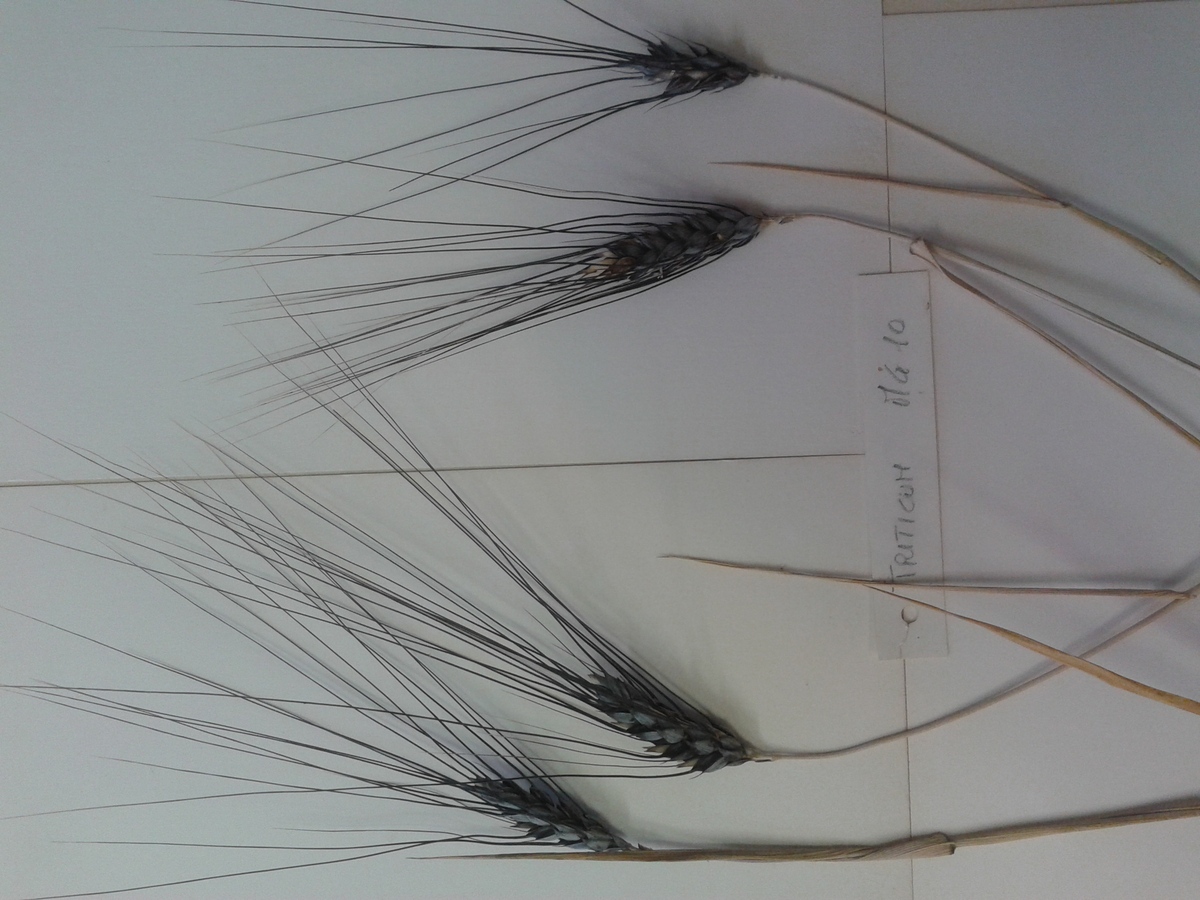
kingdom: Plantae
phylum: Tracheophyta
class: Liliopsida
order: Poales
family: Poaceae
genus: Triticum
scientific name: Triticum turgidum
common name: Wheat
